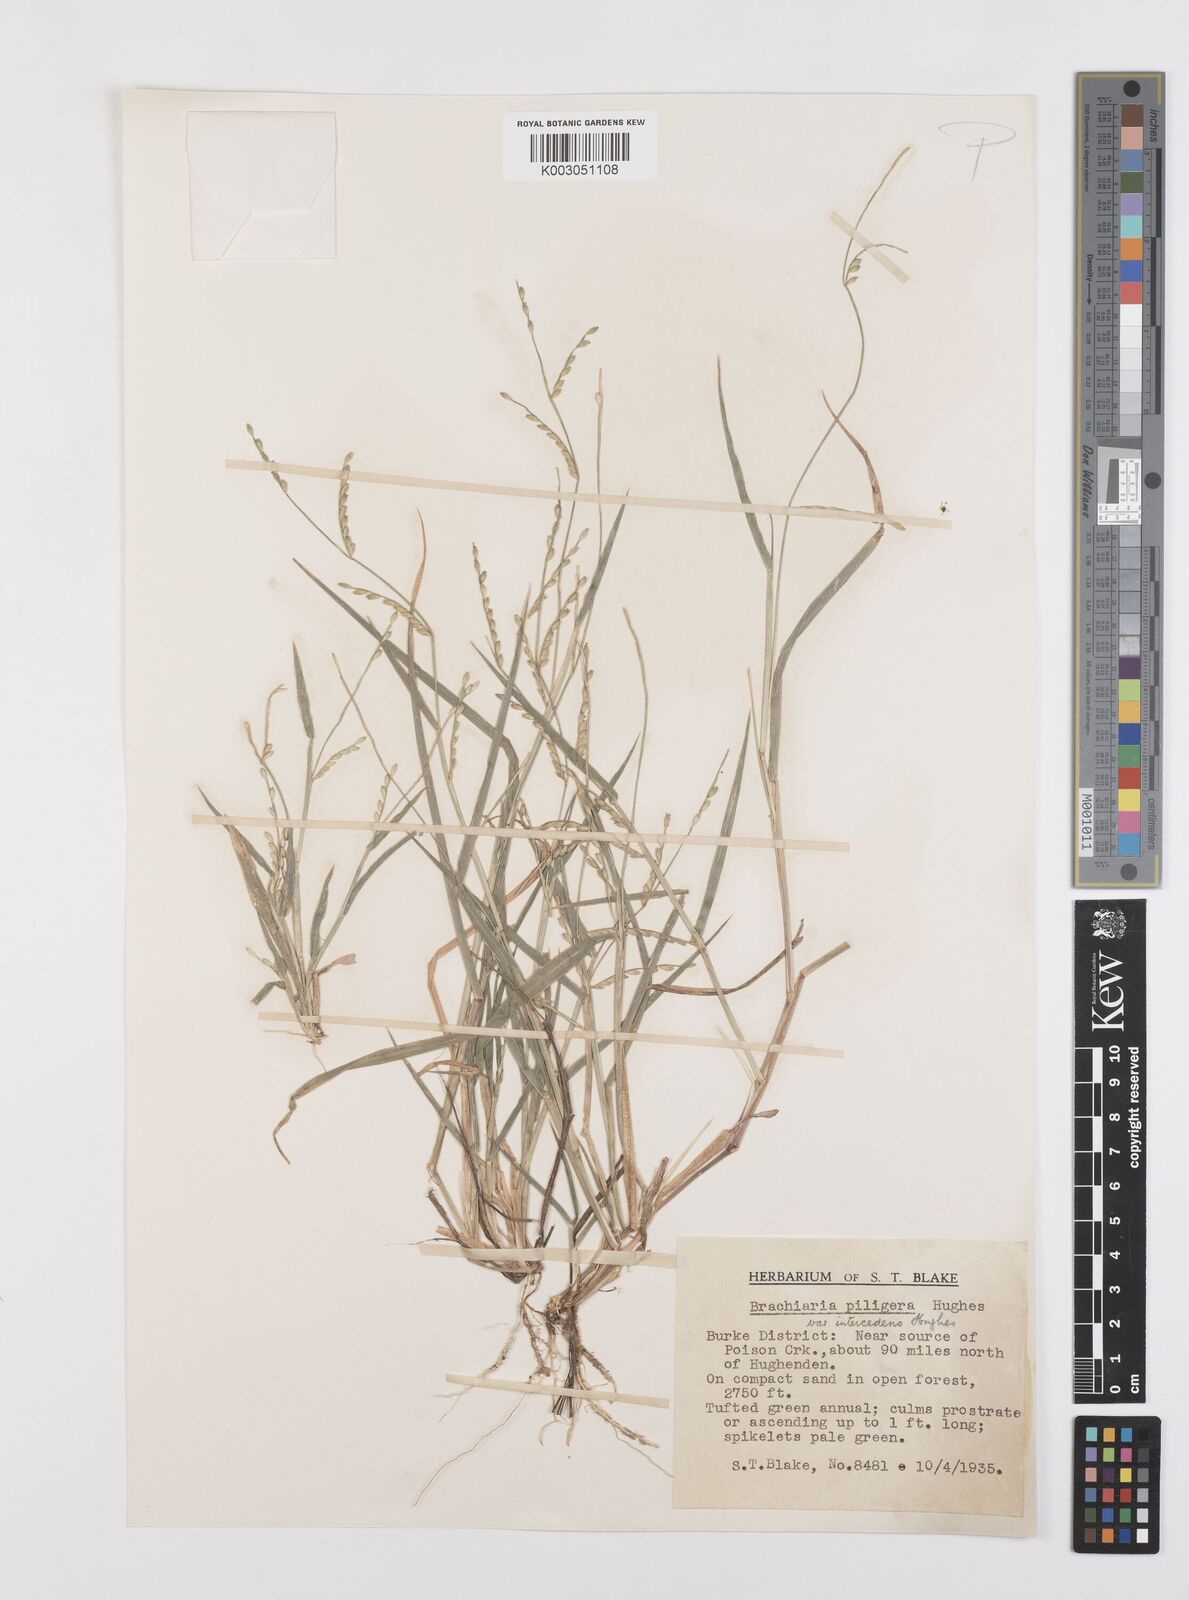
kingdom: Plantae
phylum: Tracheophyta
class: Liliopsida
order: Poales
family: Poaceae
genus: Urochloa
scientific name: Urochloa piligera
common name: Wattle signalgrass
